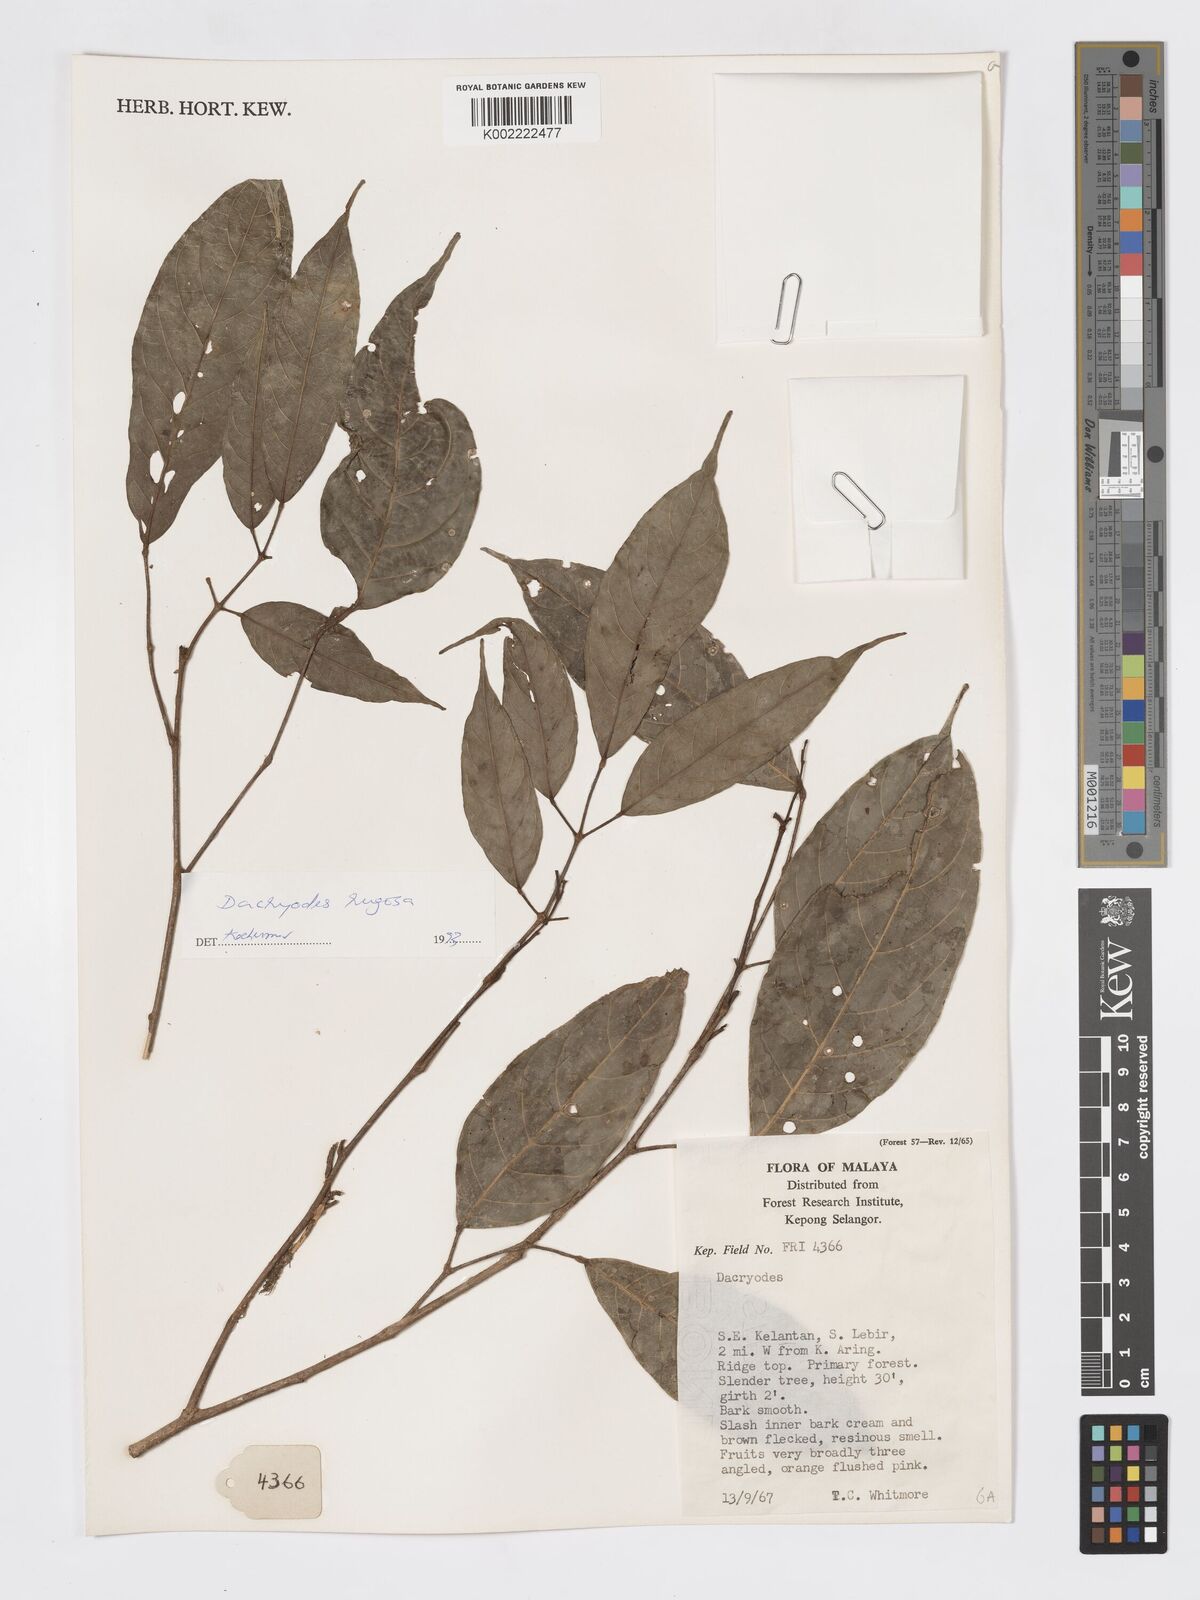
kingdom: Plantae
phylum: Tracheophyta
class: Magnoliopsida
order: Sapindales
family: Burseraceae
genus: Dacryodes
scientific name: Dacryodes rugosa
